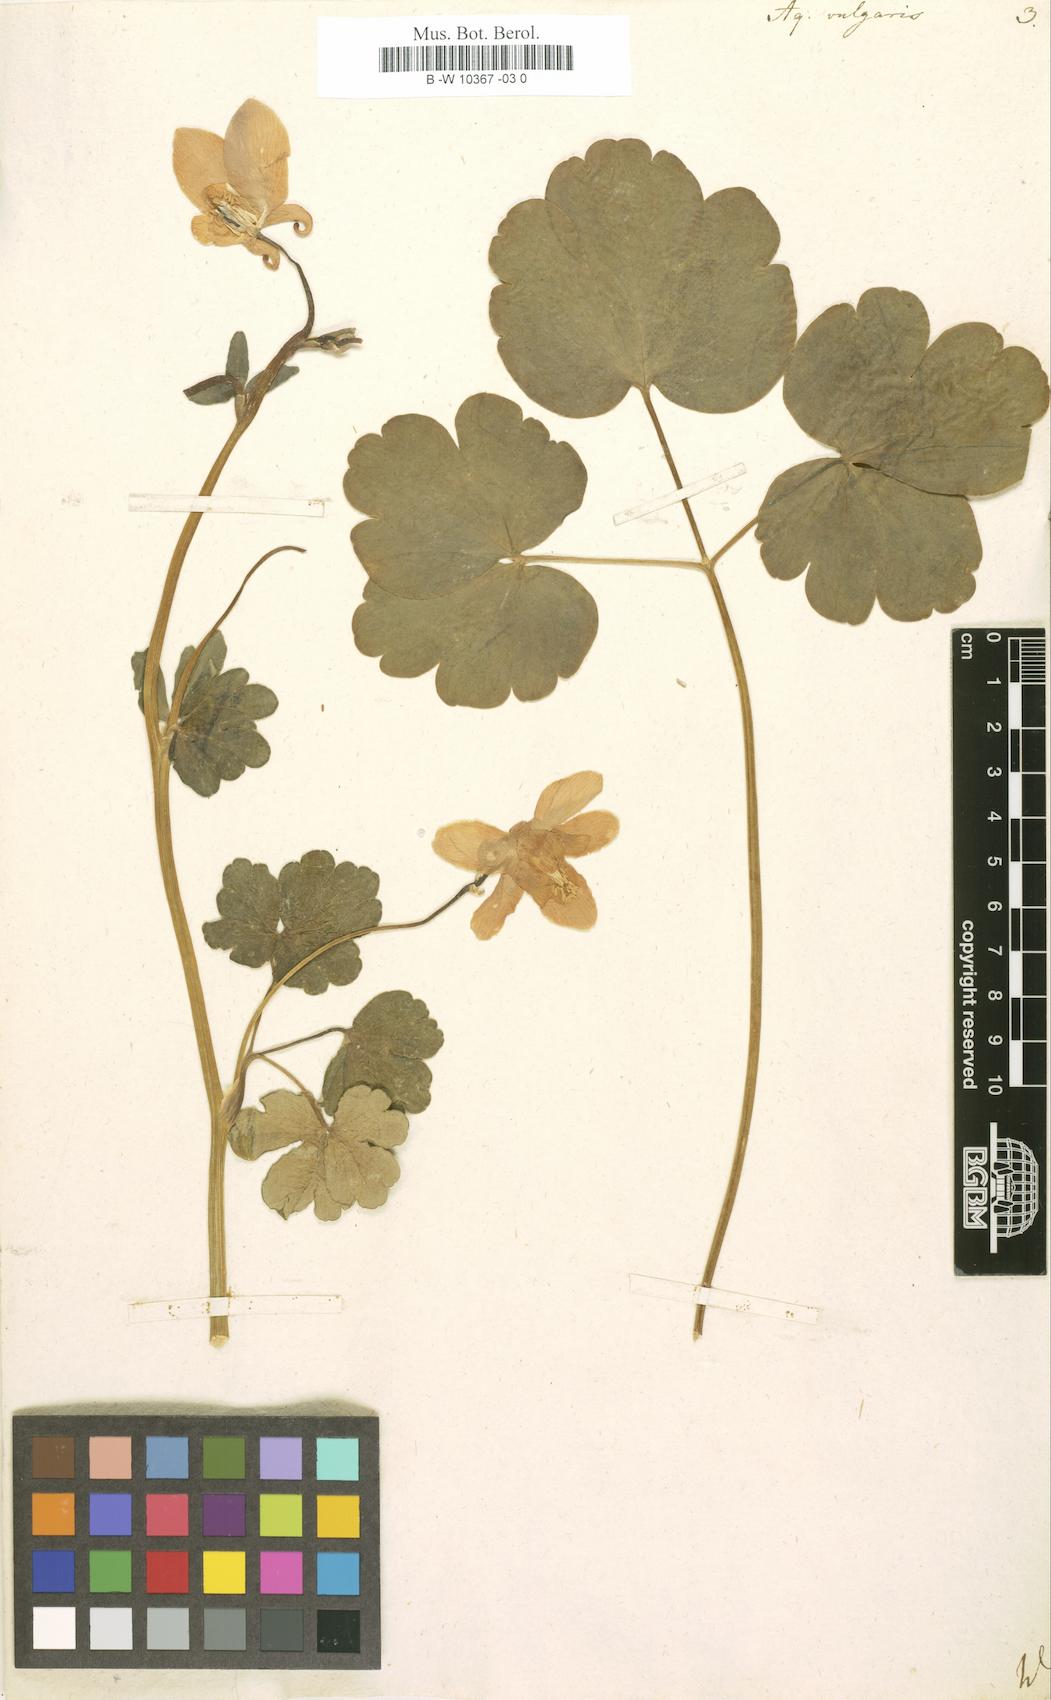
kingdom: Plantae
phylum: Tracheophyta
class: Magnoliopsida
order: Ranunculales
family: Ranunculaceae
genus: Aquilegia
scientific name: Aquilegia vulgaris
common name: Columbine
